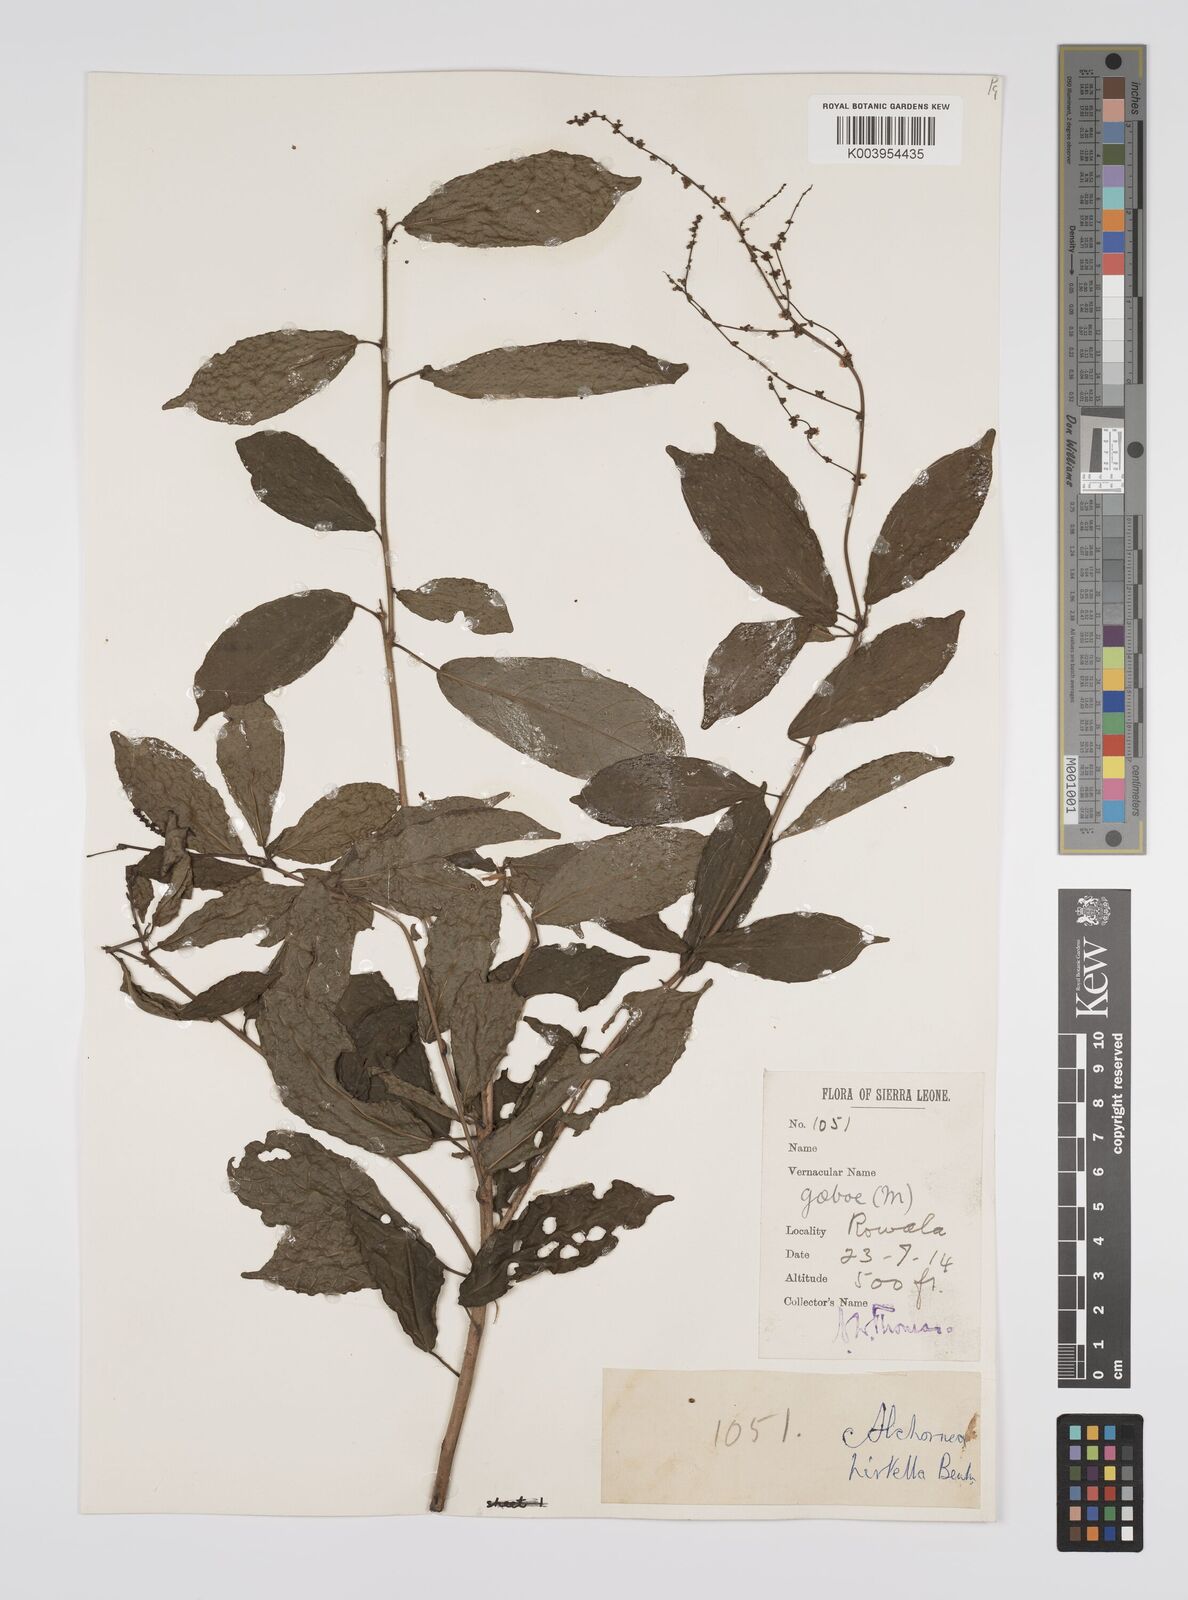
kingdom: Plantae
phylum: Tracheophyta
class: Magnoliopsida
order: Malpighiales
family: Euphorbiaceae
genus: Alchornea
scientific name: Alchornea hirtella
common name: Forest bead-string
